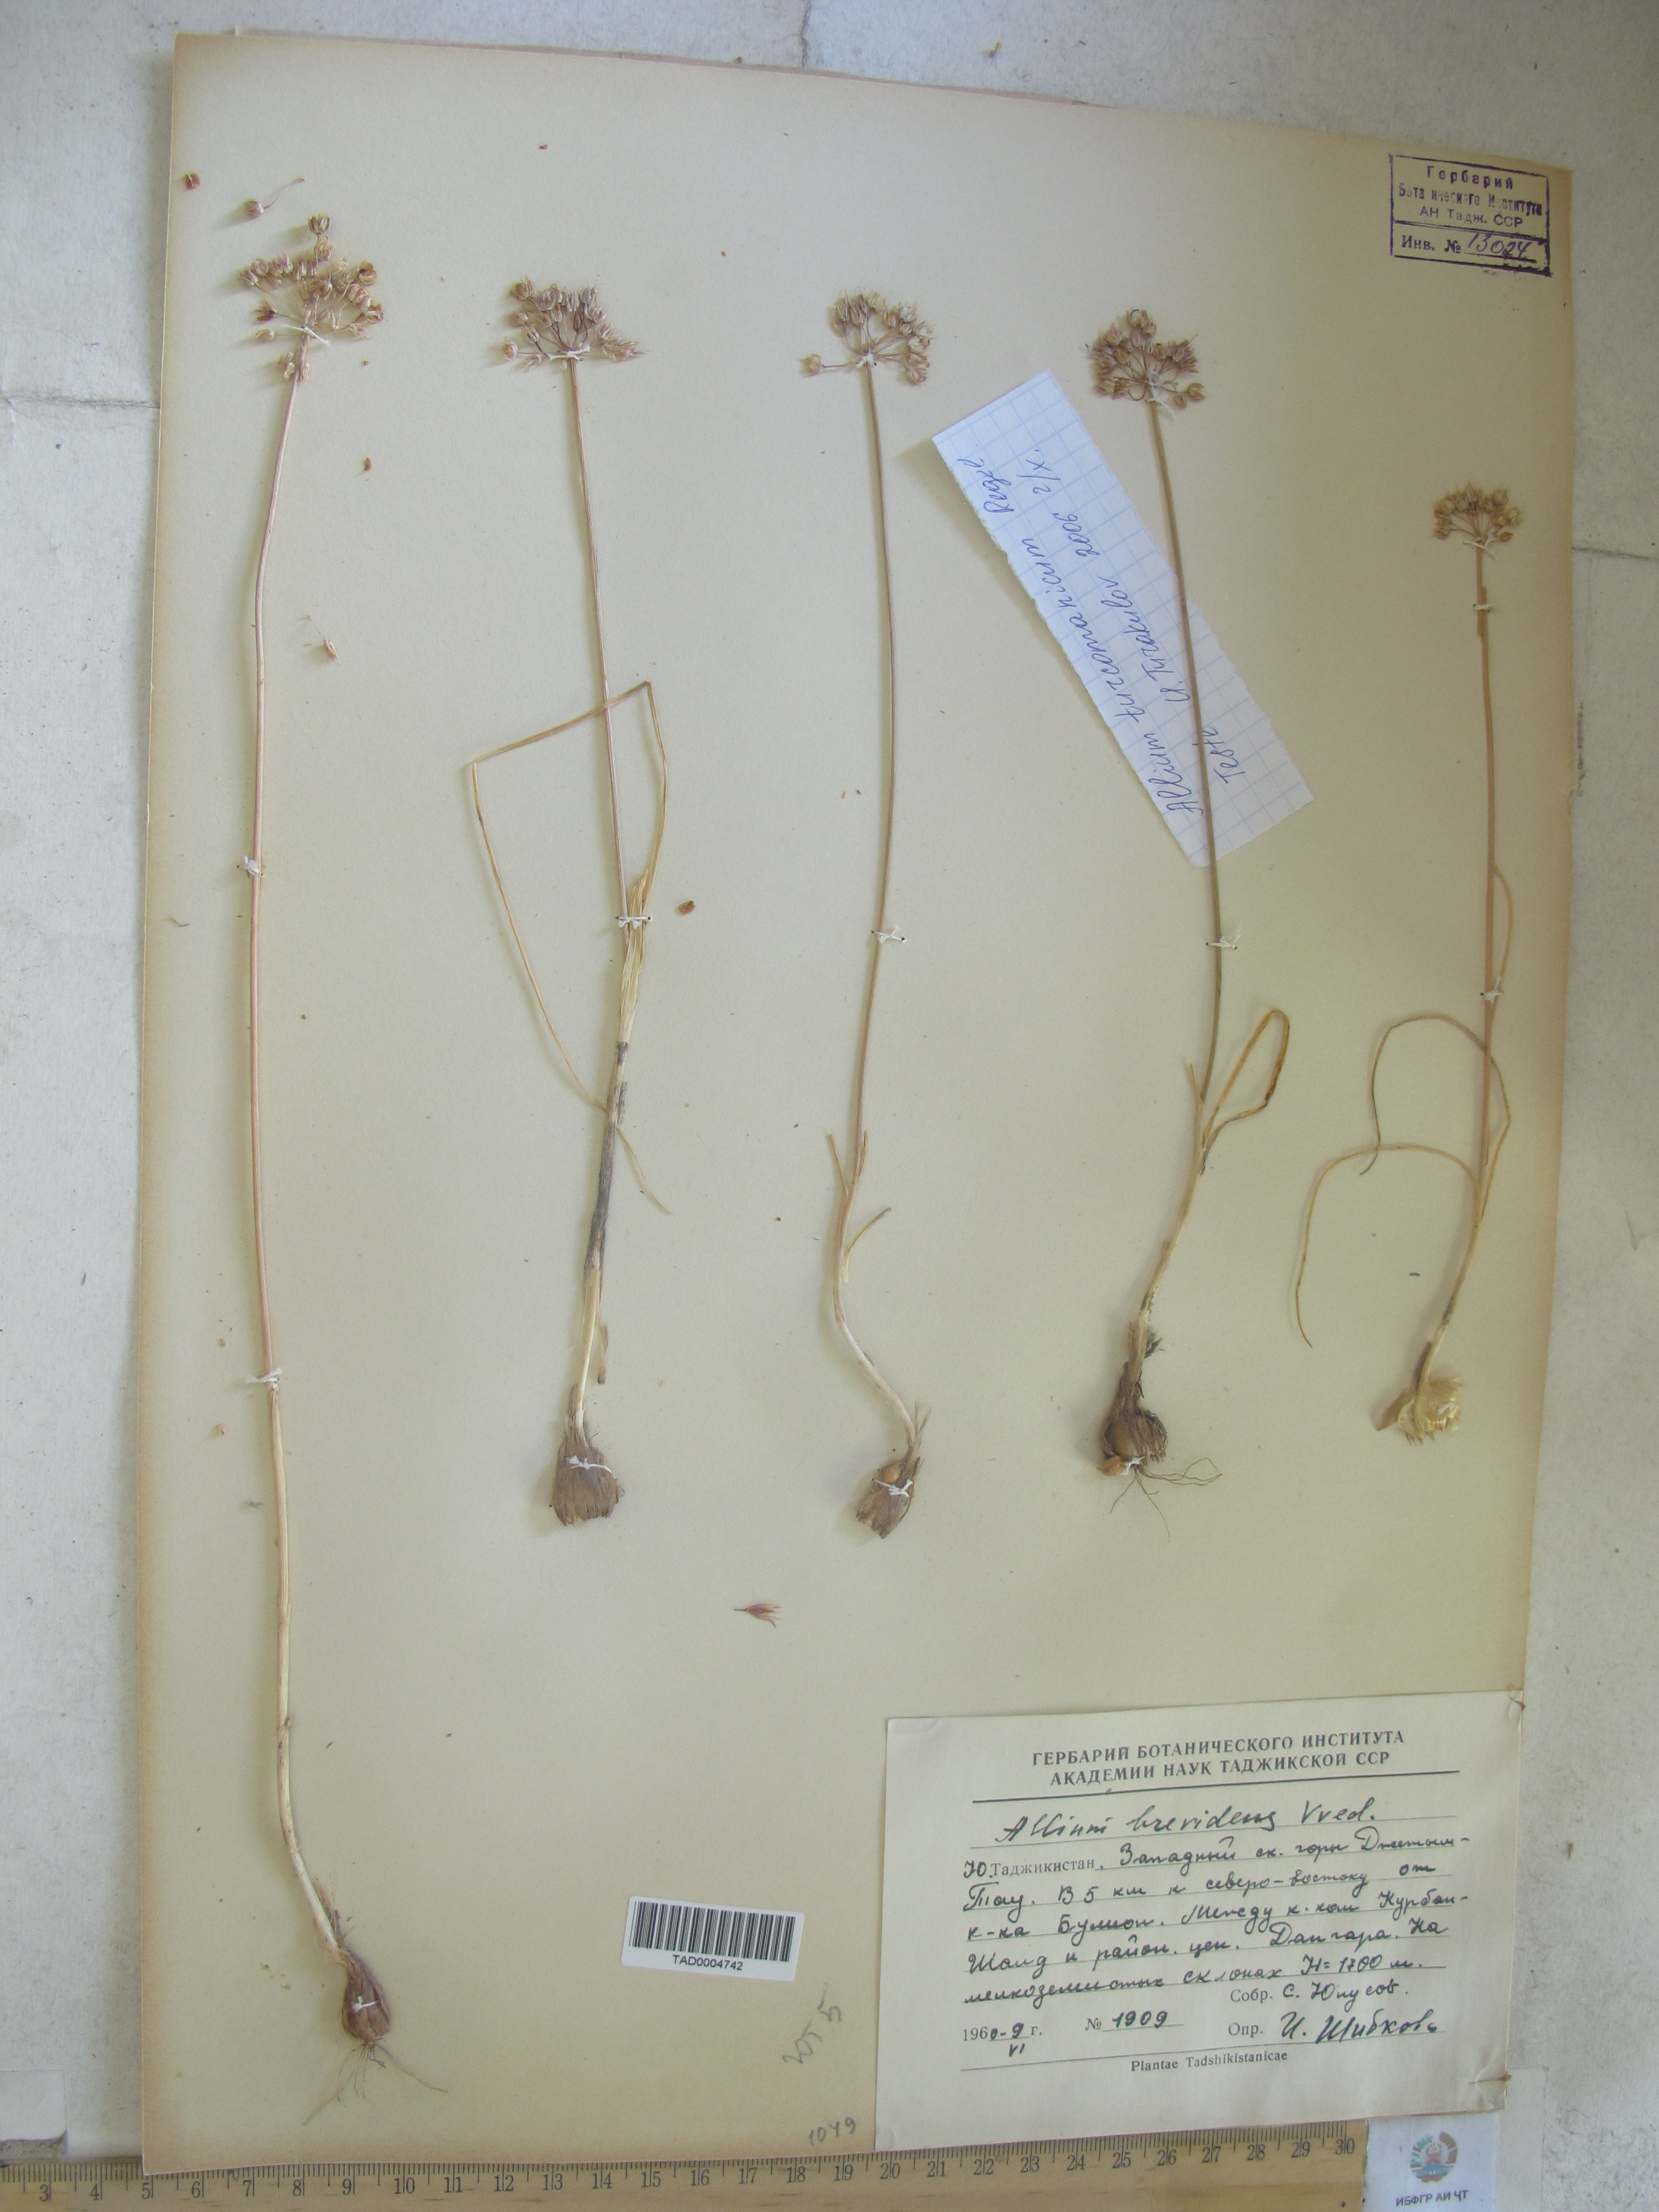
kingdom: Plantae
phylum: Tracheophyta
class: Liliopsida
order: Asparagales
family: Amaryllidaceae
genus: Allium
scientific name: Allium brevidens
